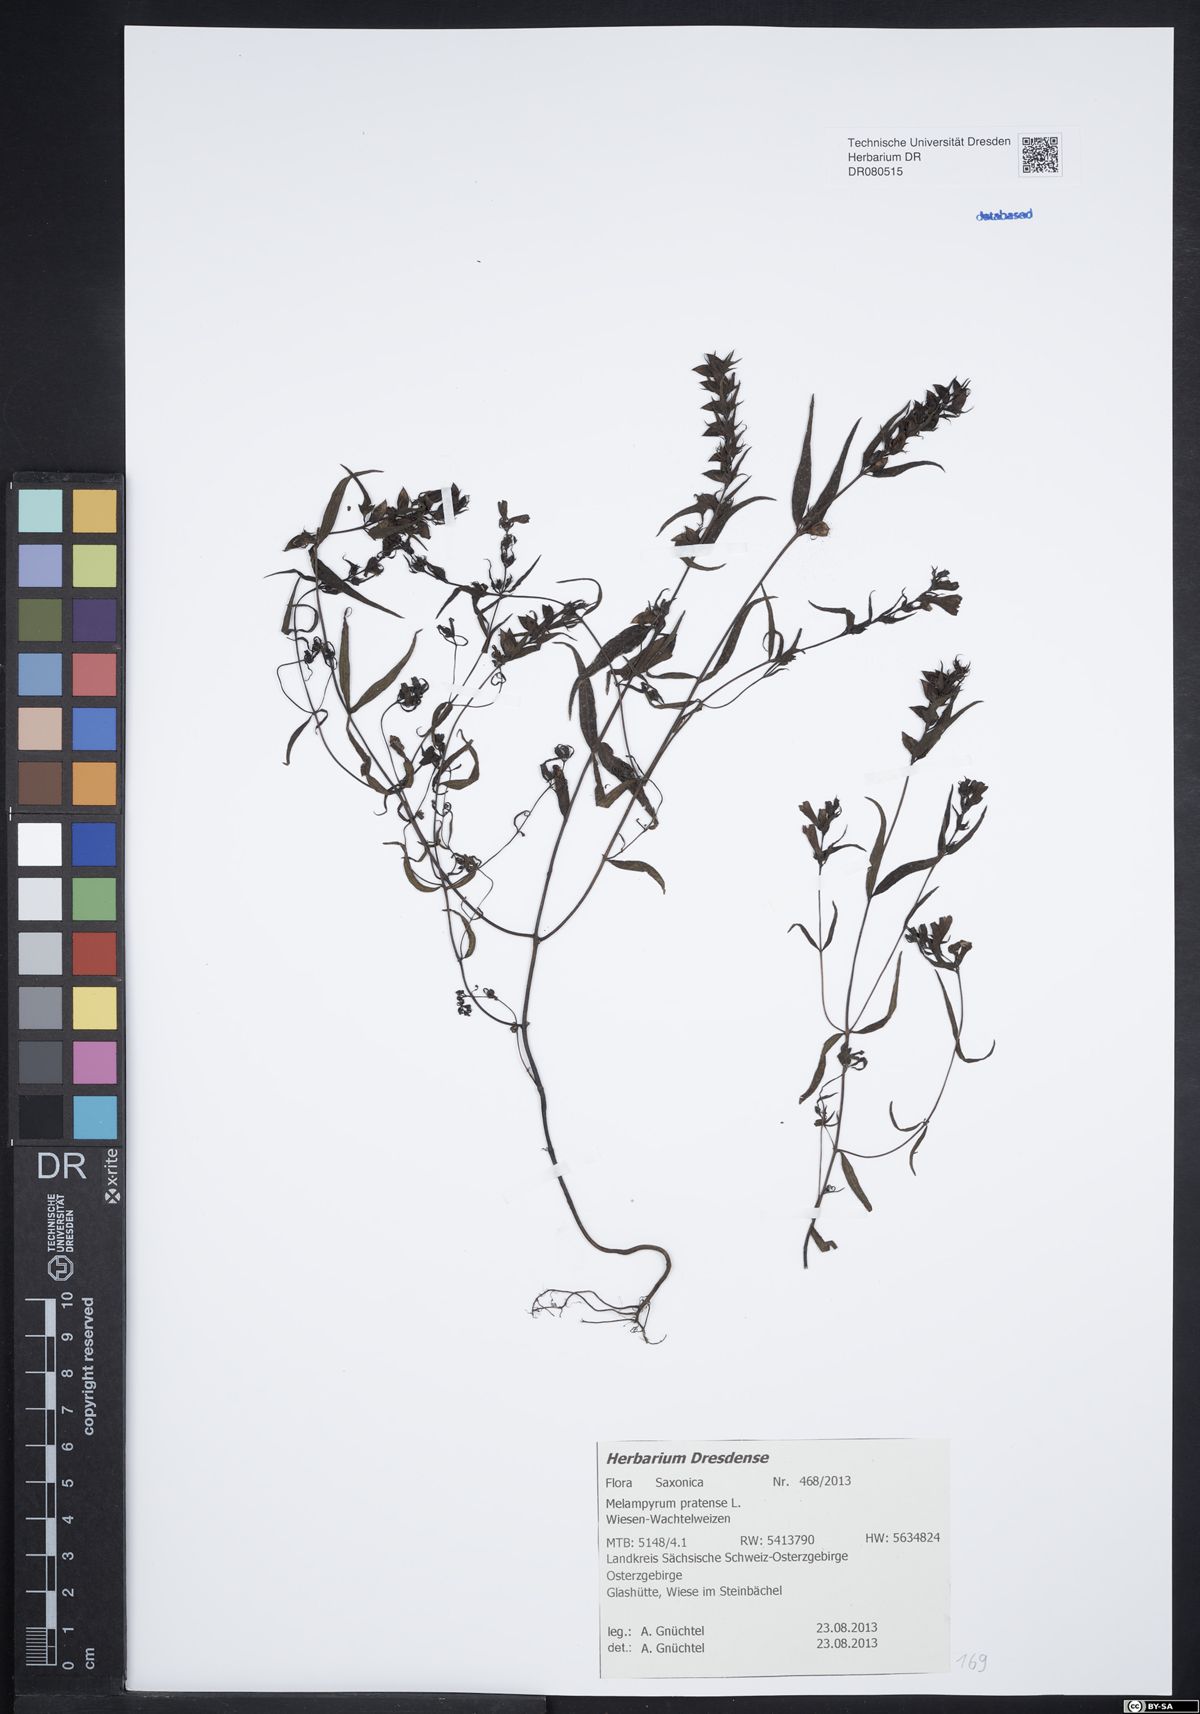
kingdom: Plantae
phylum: Tracheophyta
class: Magnoliopsida
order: Lamiales
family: Orobanchaceae
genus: Melampyrum
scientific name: Melampyrum pratense
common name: Common cow-wheat
